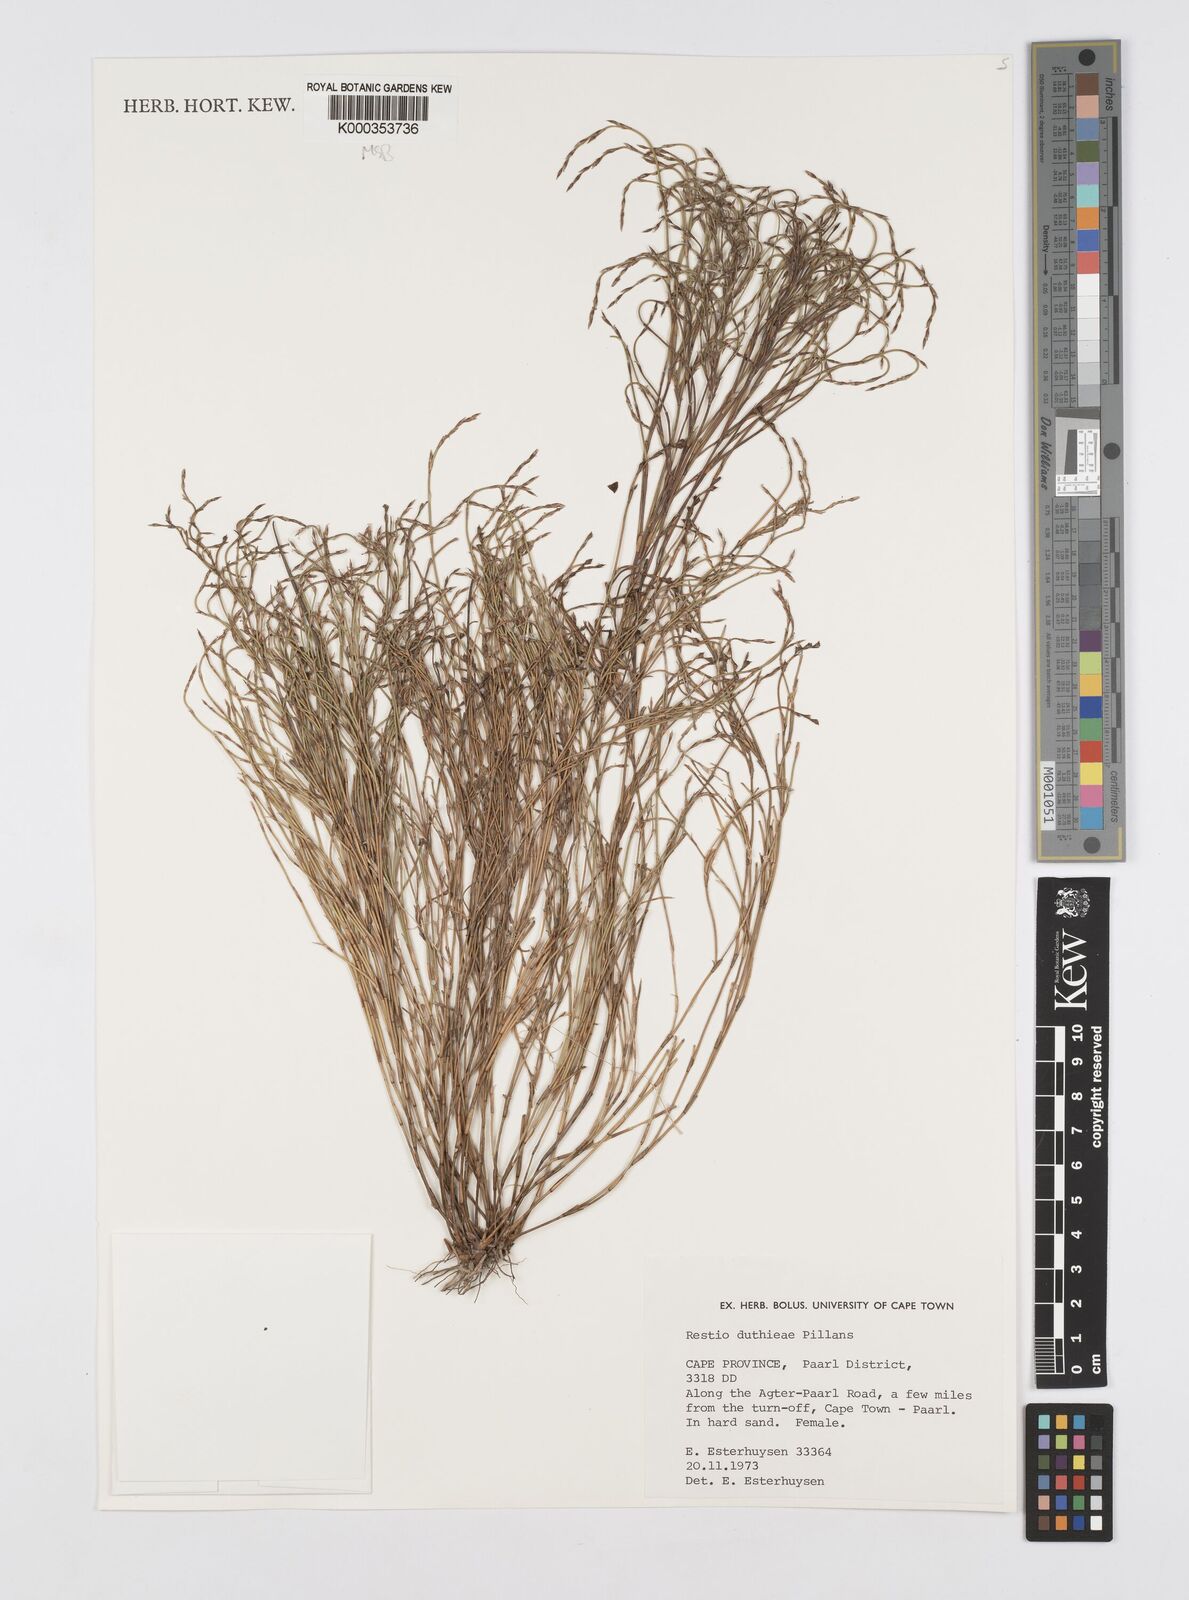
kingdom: Plantae
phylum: Tracheophyta
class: Liliopsida
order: Poales
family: Restionaceae
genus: Restio
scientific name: Restio duthieae
